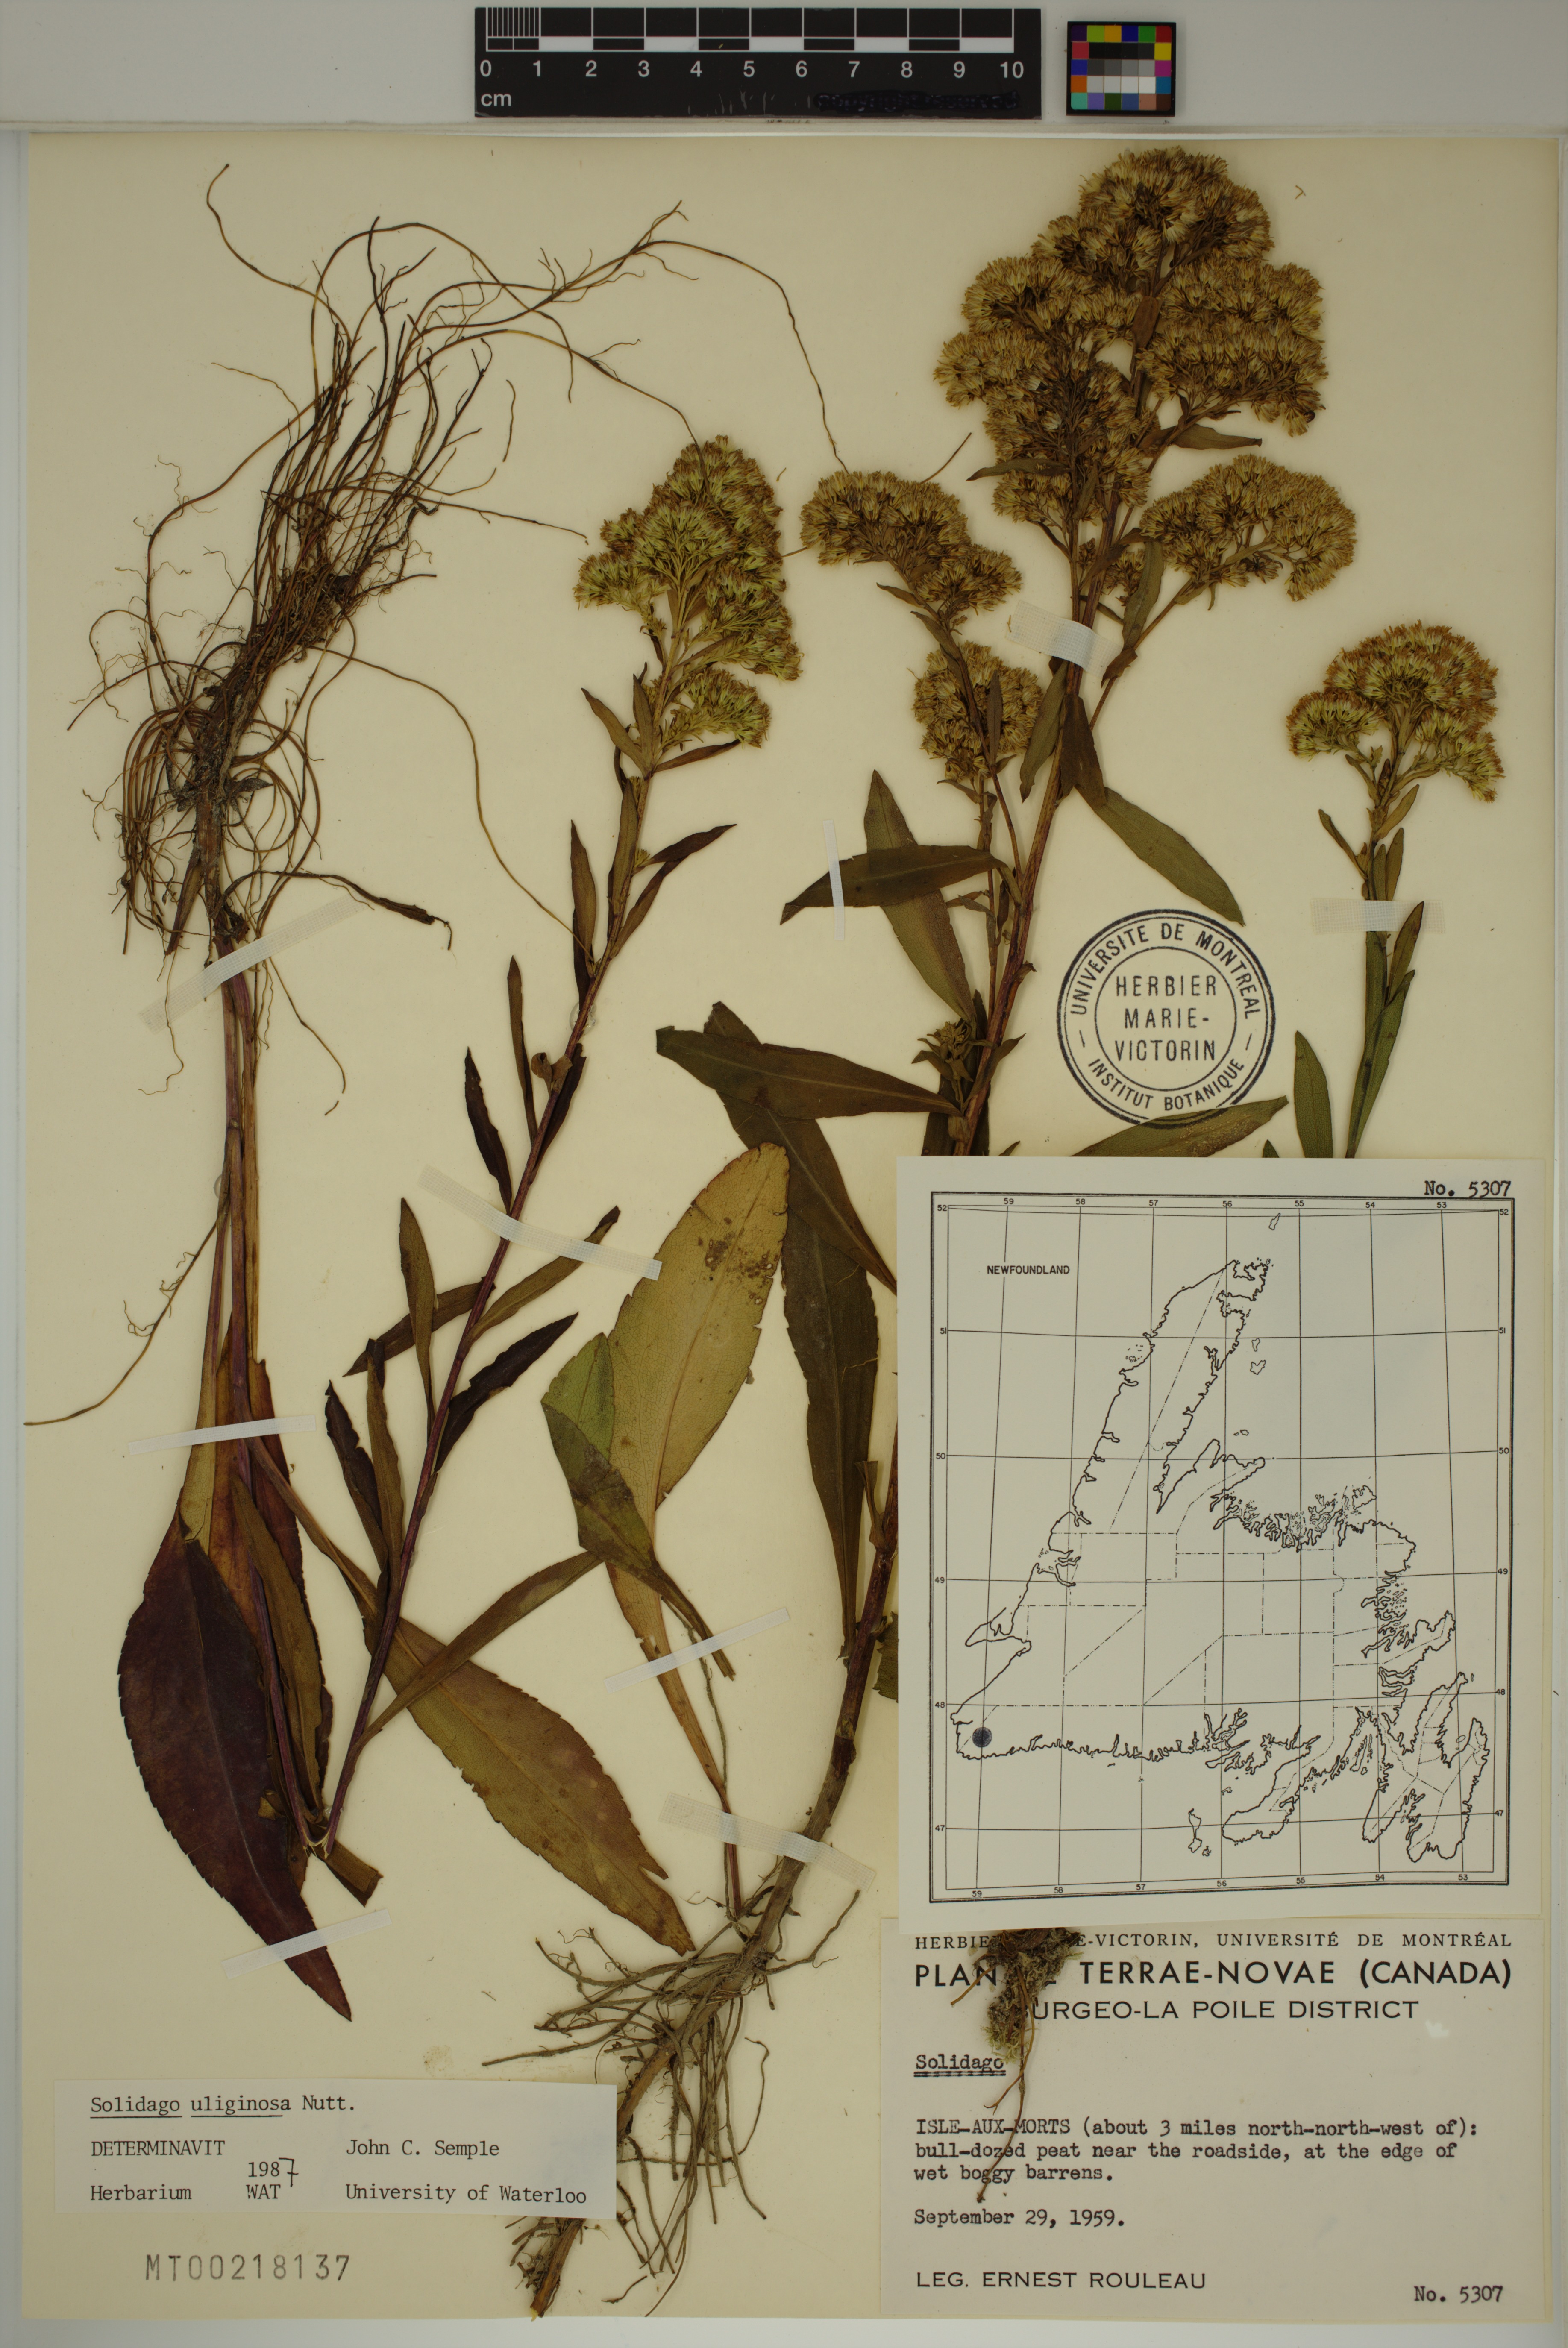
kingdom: Plantae
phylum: Tracheophyta
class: Magnoliopsida
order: Asterales
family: Asteraceae
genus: Solidago
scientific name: Solidago uliginosa
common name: Bog goldenrod
